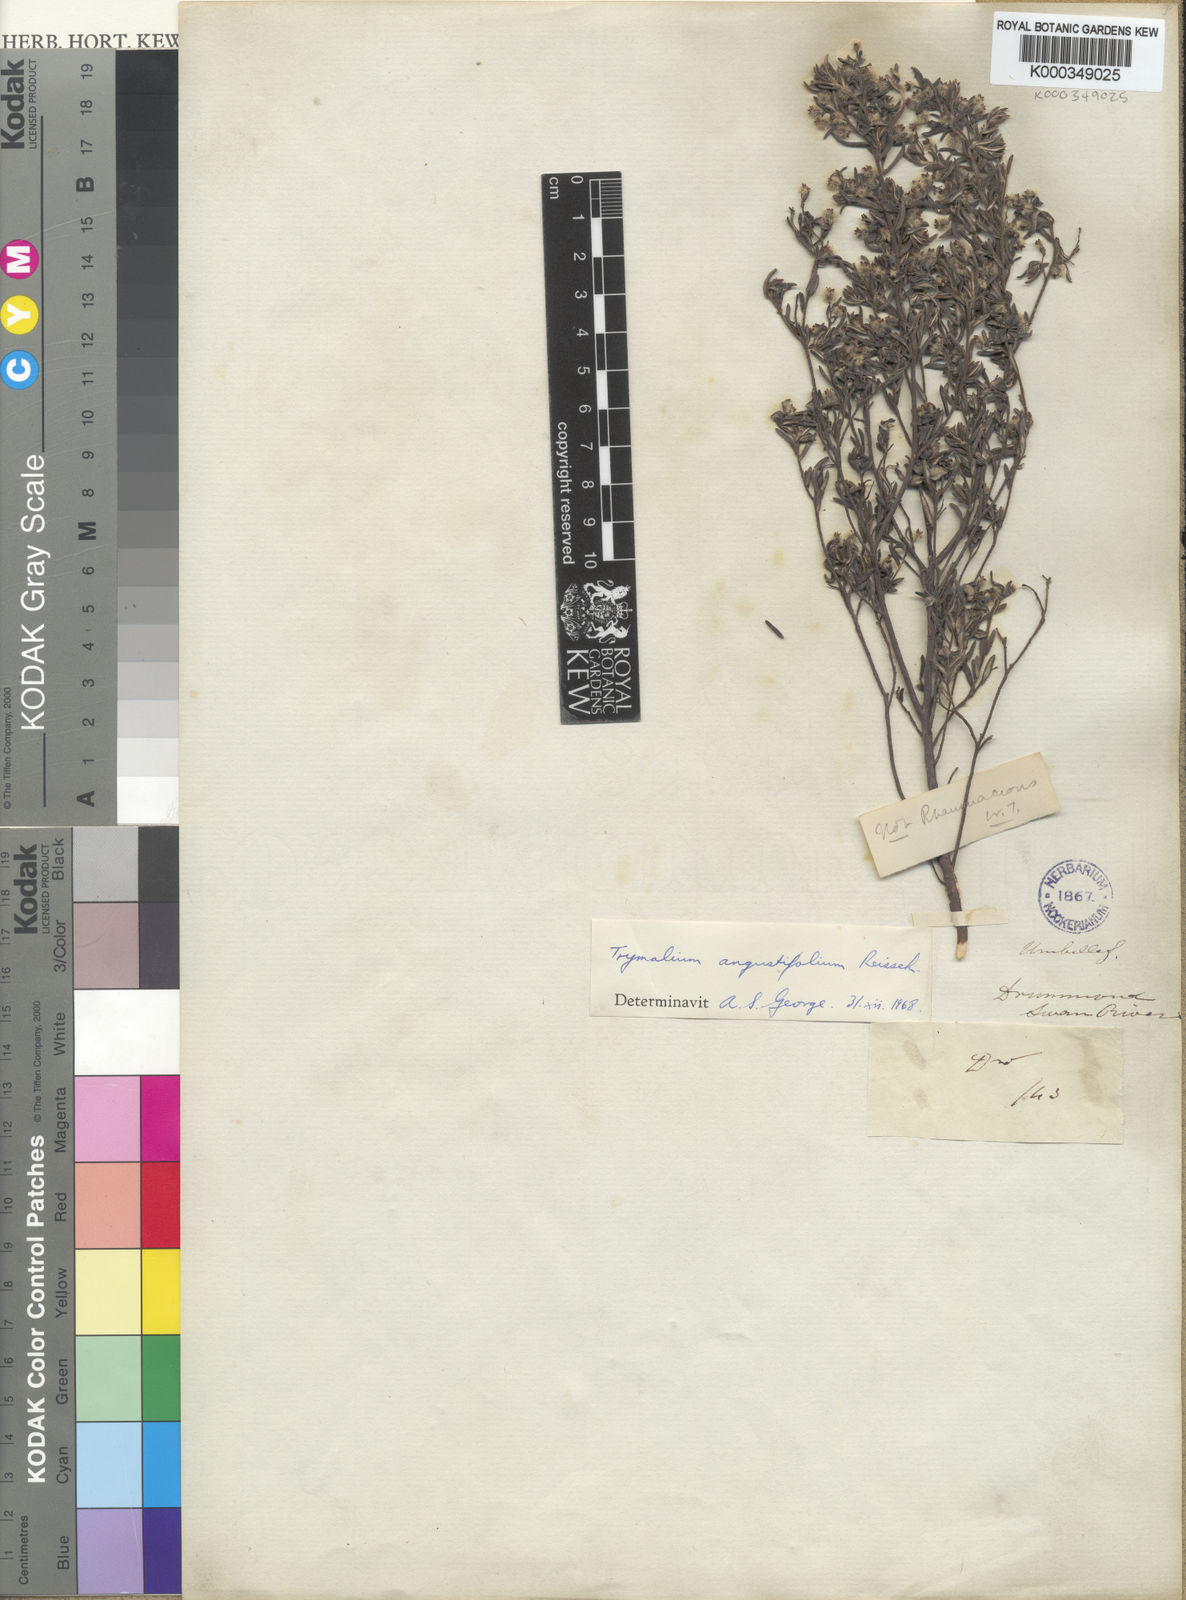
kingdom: Plantae
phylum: Tracheophyta
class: Magnoliopsida
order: Rosales
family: Rhamnaceae
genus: Trymalium
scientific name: Trymalium angustifolium
